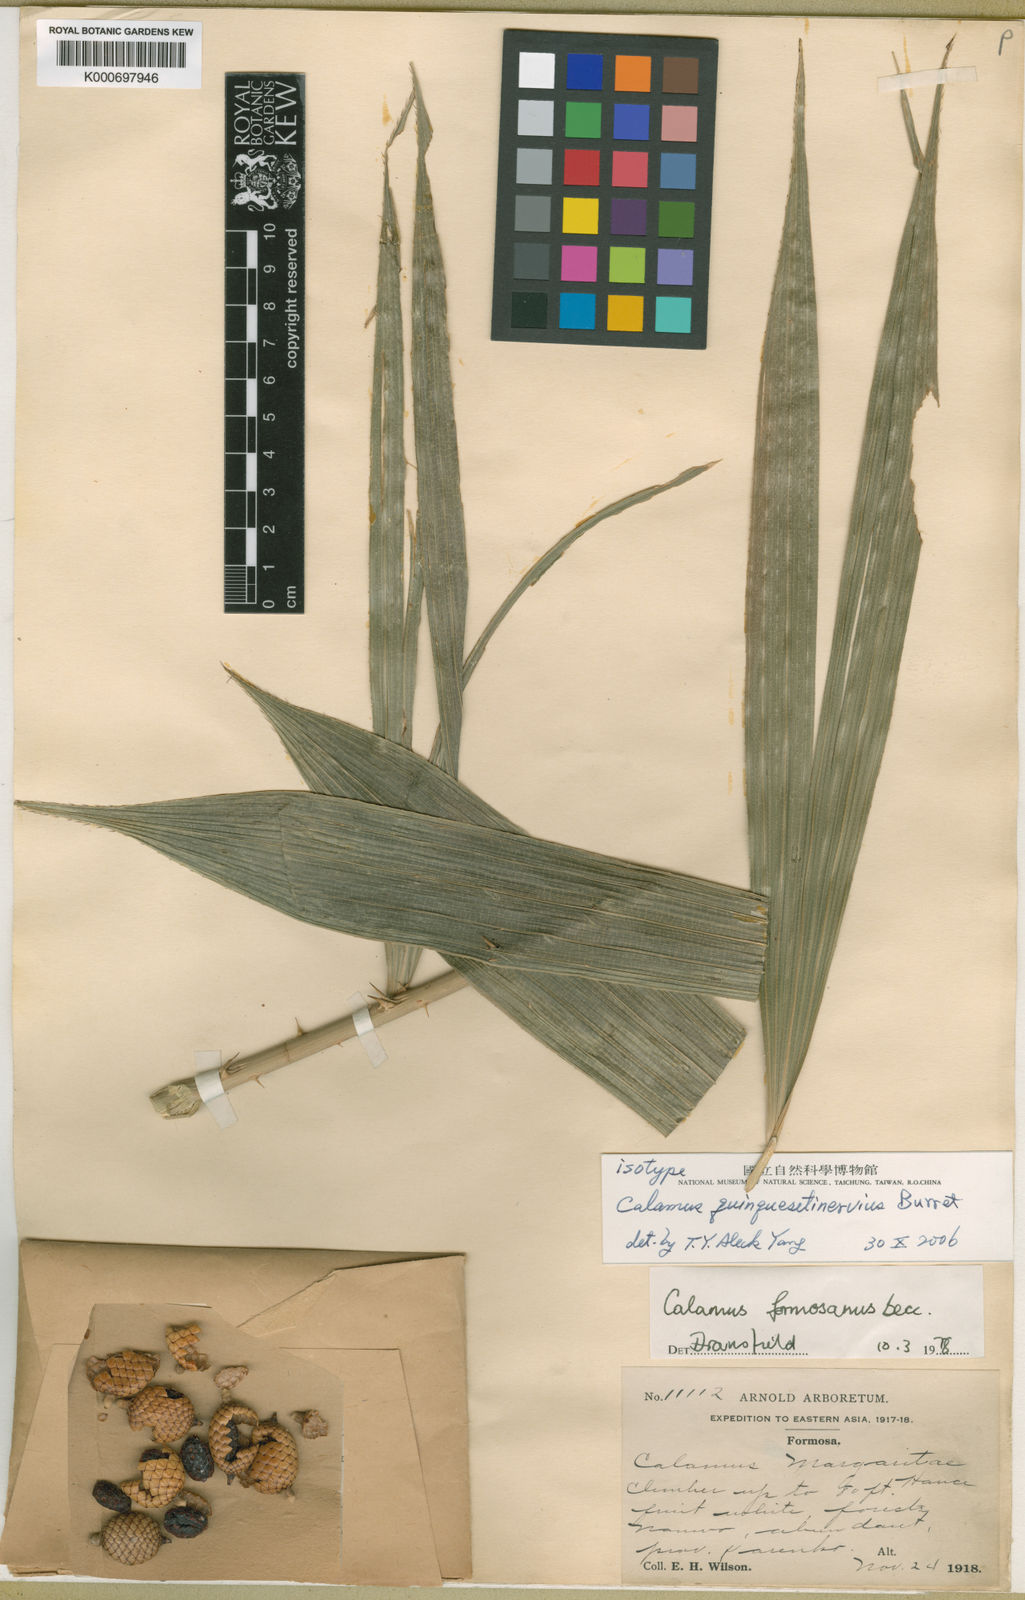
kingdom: Plantae
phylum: Tracheophyta
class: Liliopsida
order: Arecales
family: Arecaceae
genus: Calamus
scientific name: Calamus formosanus
